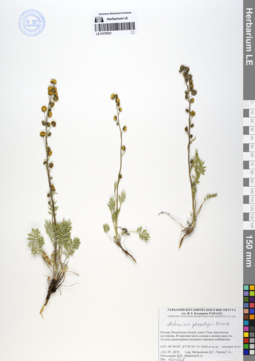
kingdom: Plantae
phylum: Tracheophyta
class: Magnoliopsida
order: Asterales
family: Asteraceae
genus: Artemisia
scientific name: Artemisia phaeolepis
